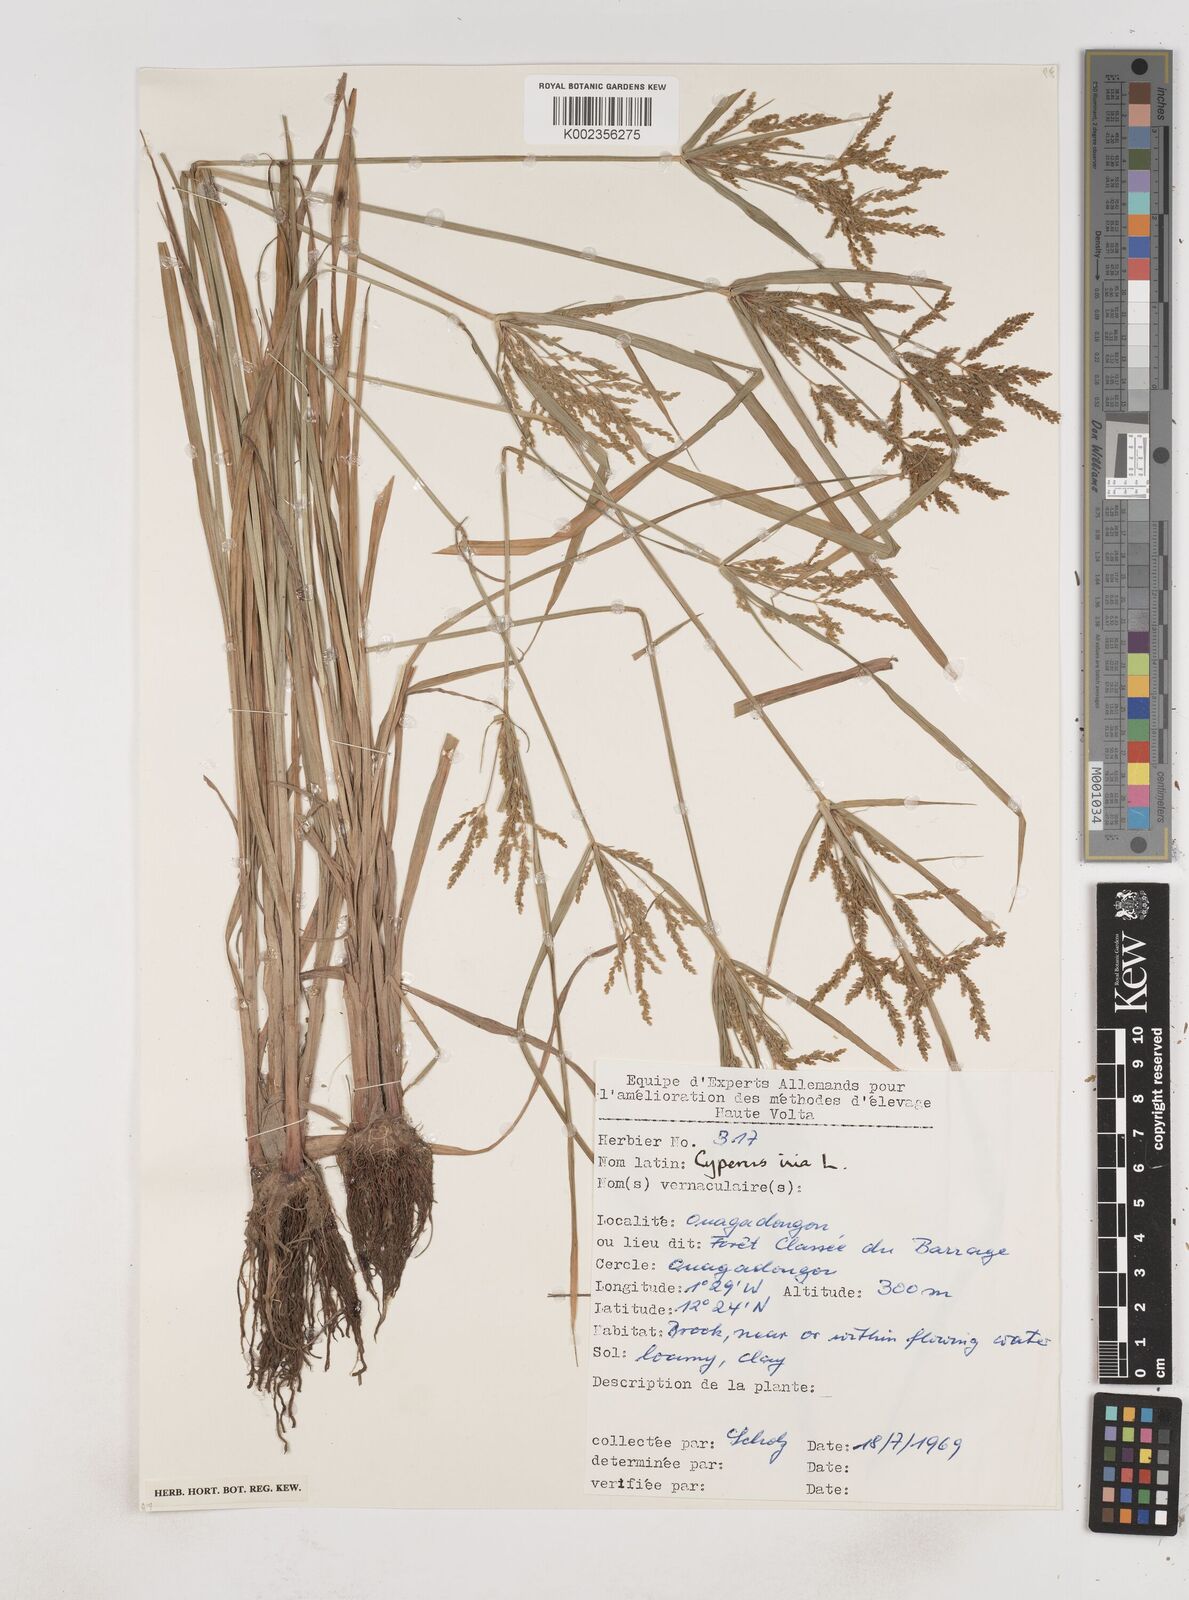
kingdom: Plantae
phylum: Tracheophyta
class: Liliopsida
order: Poales
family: Cyperaceae
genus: Cyperus
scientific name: Cyperus iria
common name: Ricefield flatsedge
